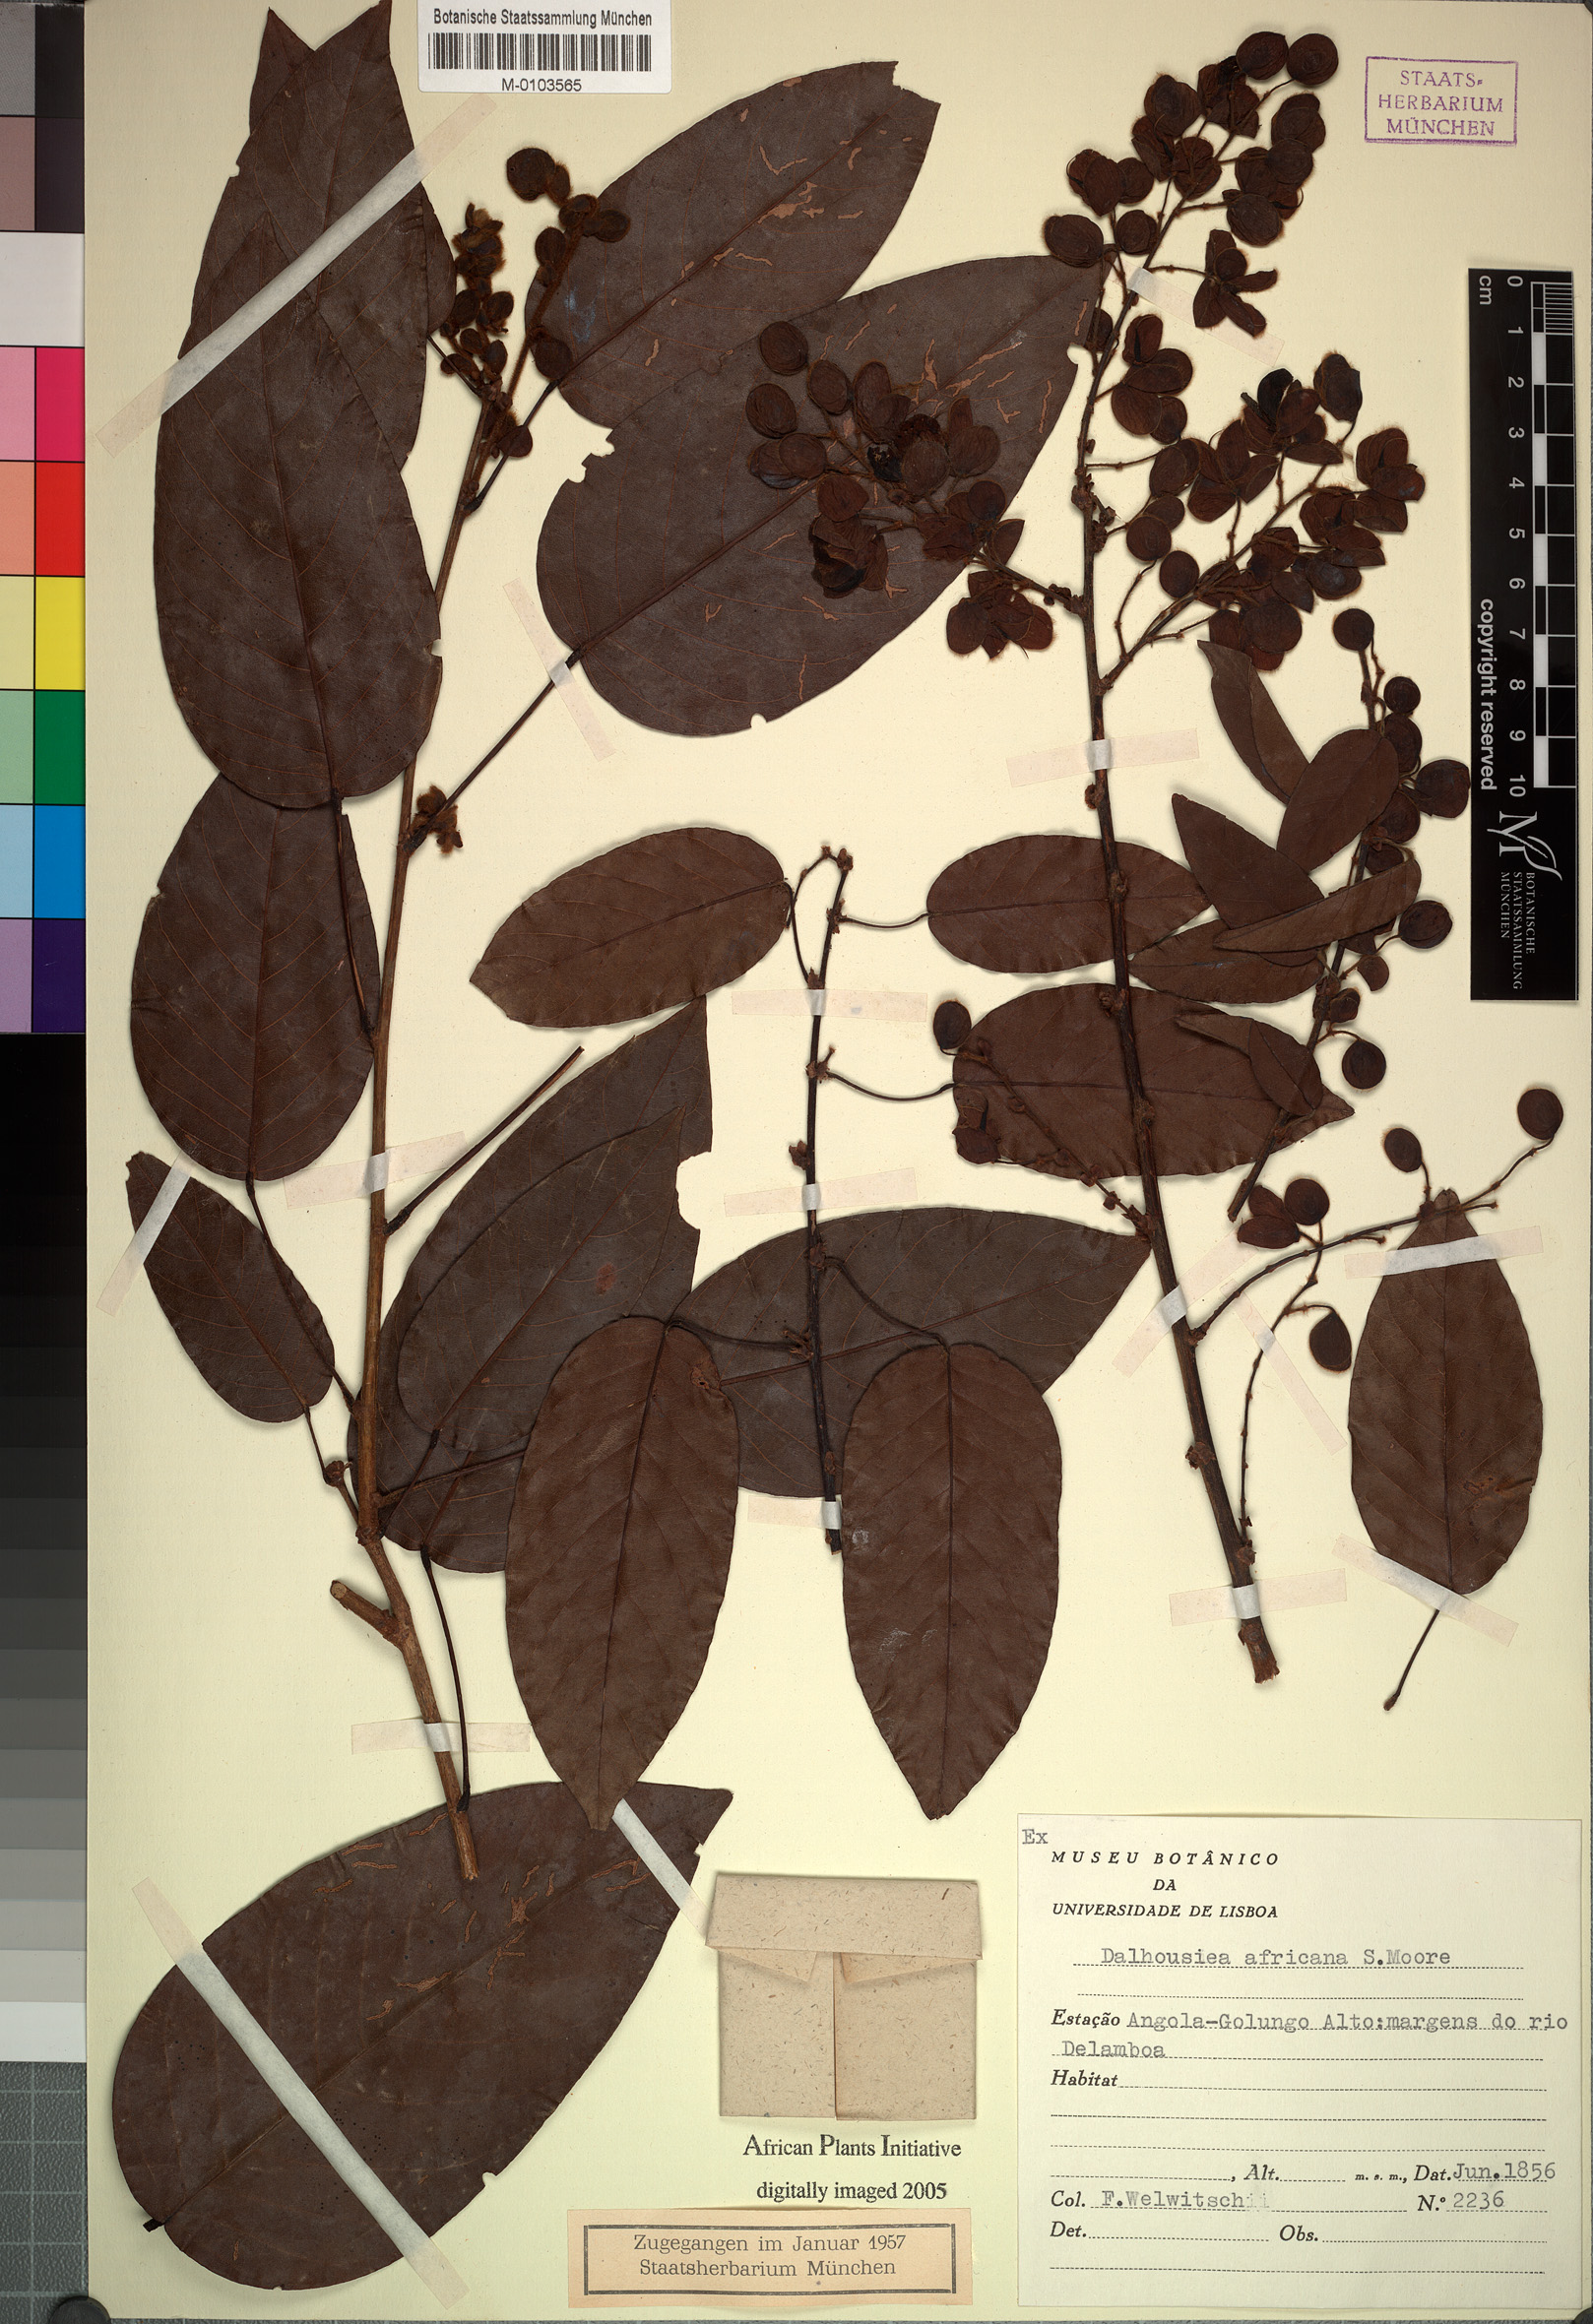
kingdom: Plantae
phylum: Tracheophyta
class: Magnoliopsida
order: Fabales
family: Fabaceae
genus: Dalhousiea
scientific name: Dalhousiea africana
